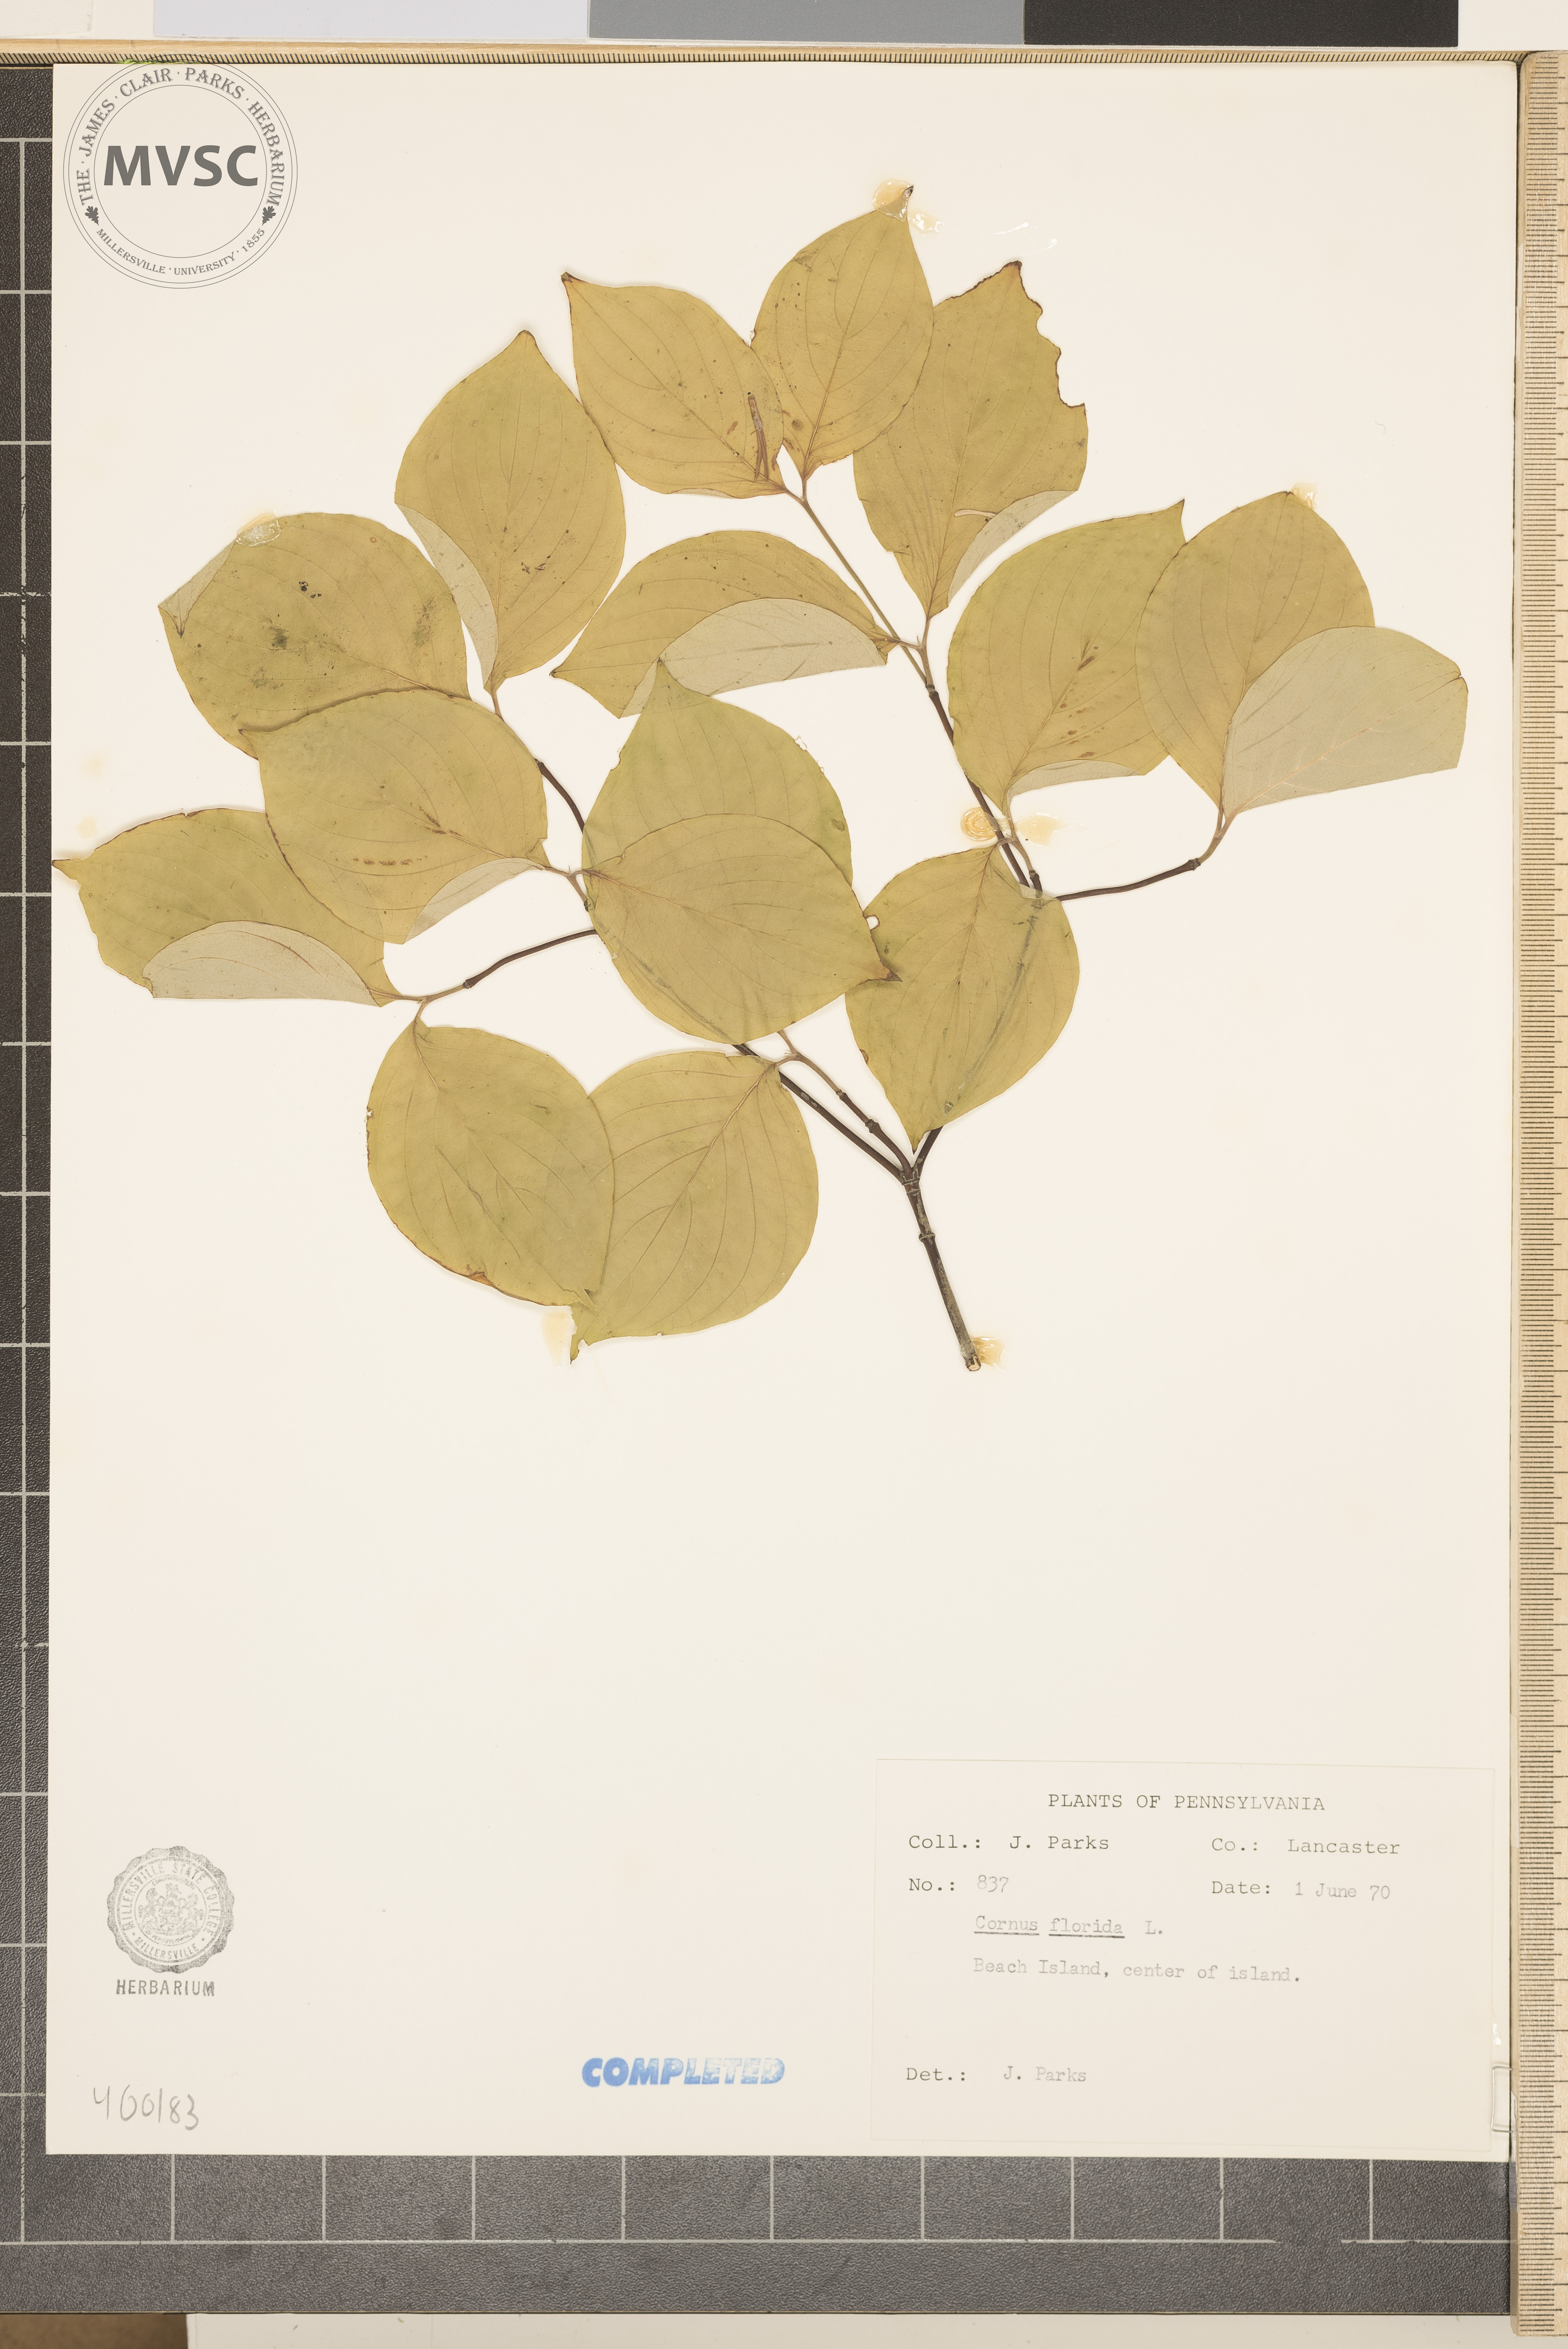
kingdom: Plantae
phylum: Tracheophyta
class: Magnoliopsida
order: Cornales
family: Cornaceae
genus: Cornus
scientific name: Cornus florida
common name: flowering dogwood
